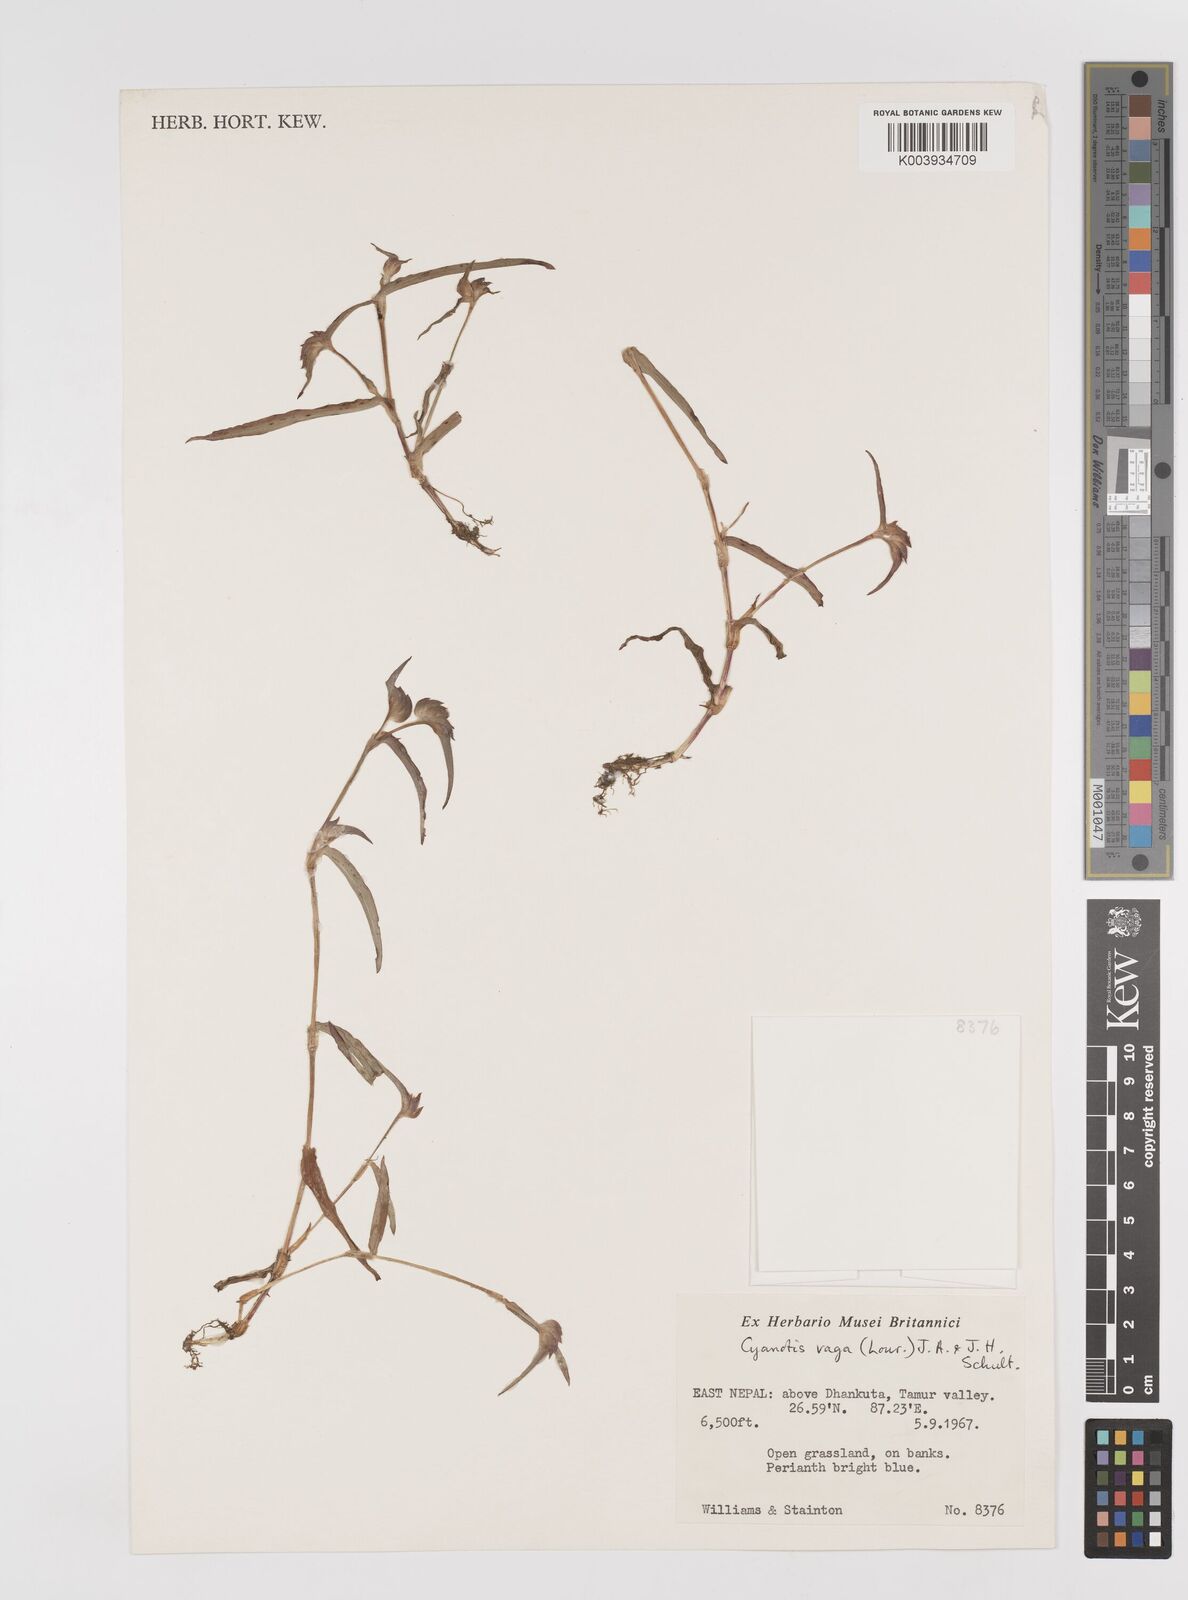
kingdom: Plantae
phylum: Tracheophyta
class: Liliopsida
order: Commelinales
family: Commelinaceae
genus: Cyanotis
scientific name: Cyanotis vaga
